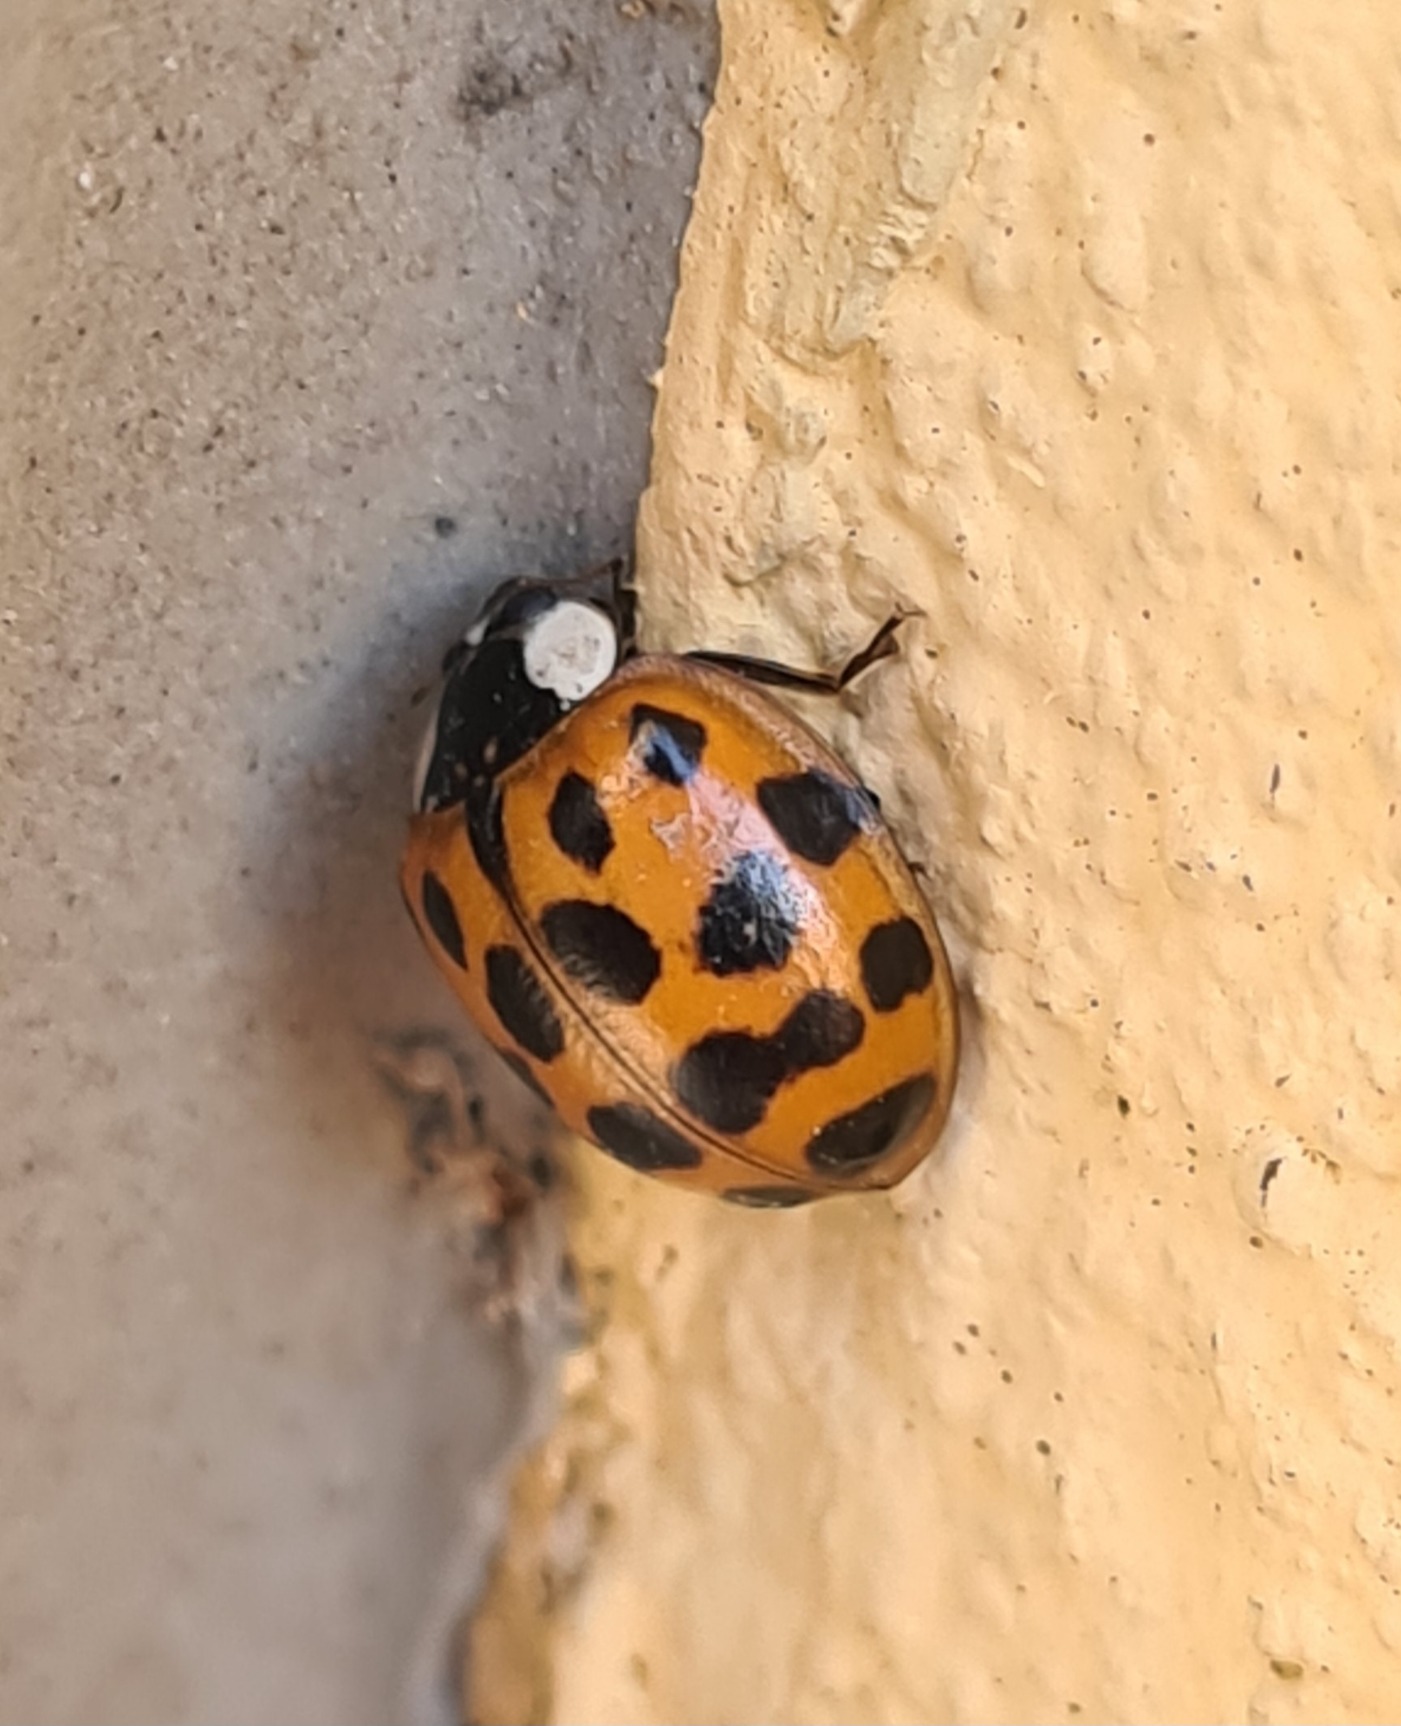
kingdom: Animalia
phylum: Arthropoda
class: Insecta
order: Coleoptera
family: Coccinellidae
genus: Harmonia
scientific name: Harmonia axyridis
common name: Harlekinmariehøne
